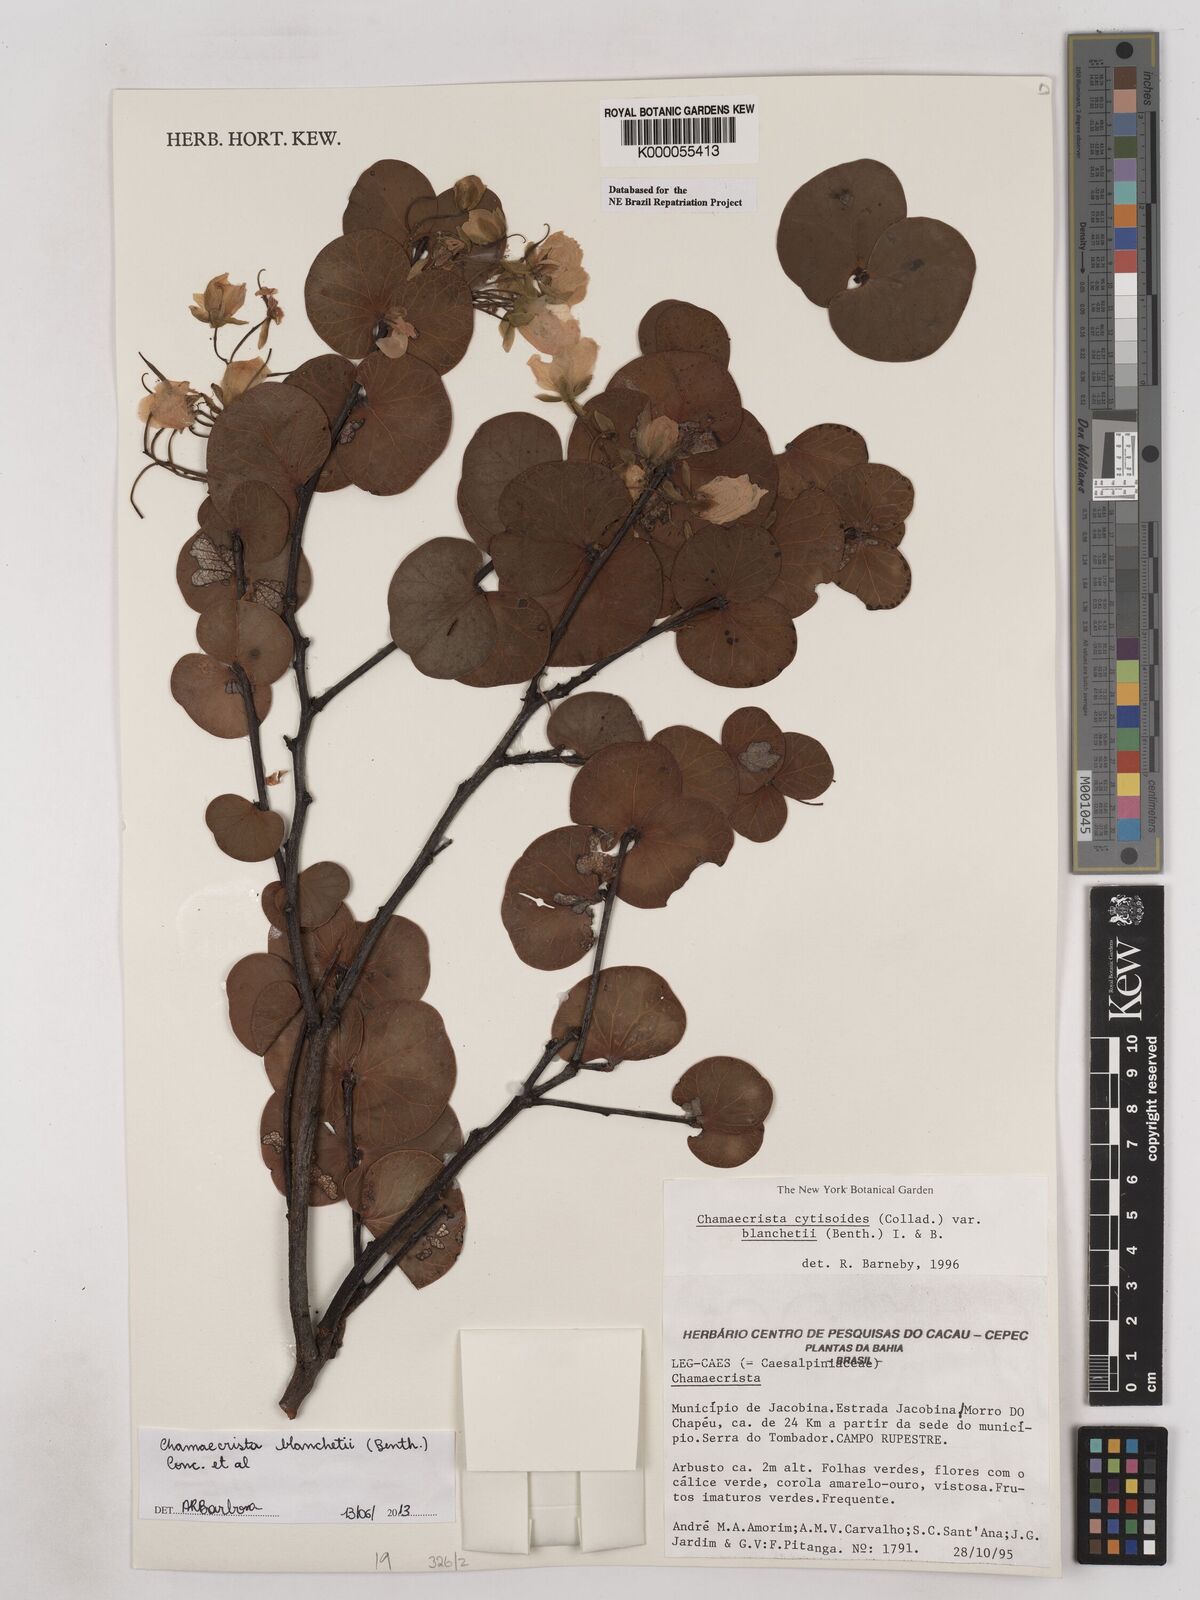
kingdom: Plantae
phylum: Tracheophyta
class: Magnoliopsida
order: Fabales
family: Fabaceae
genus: Chamaecrista
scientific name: Chamaecrista cytisoides
